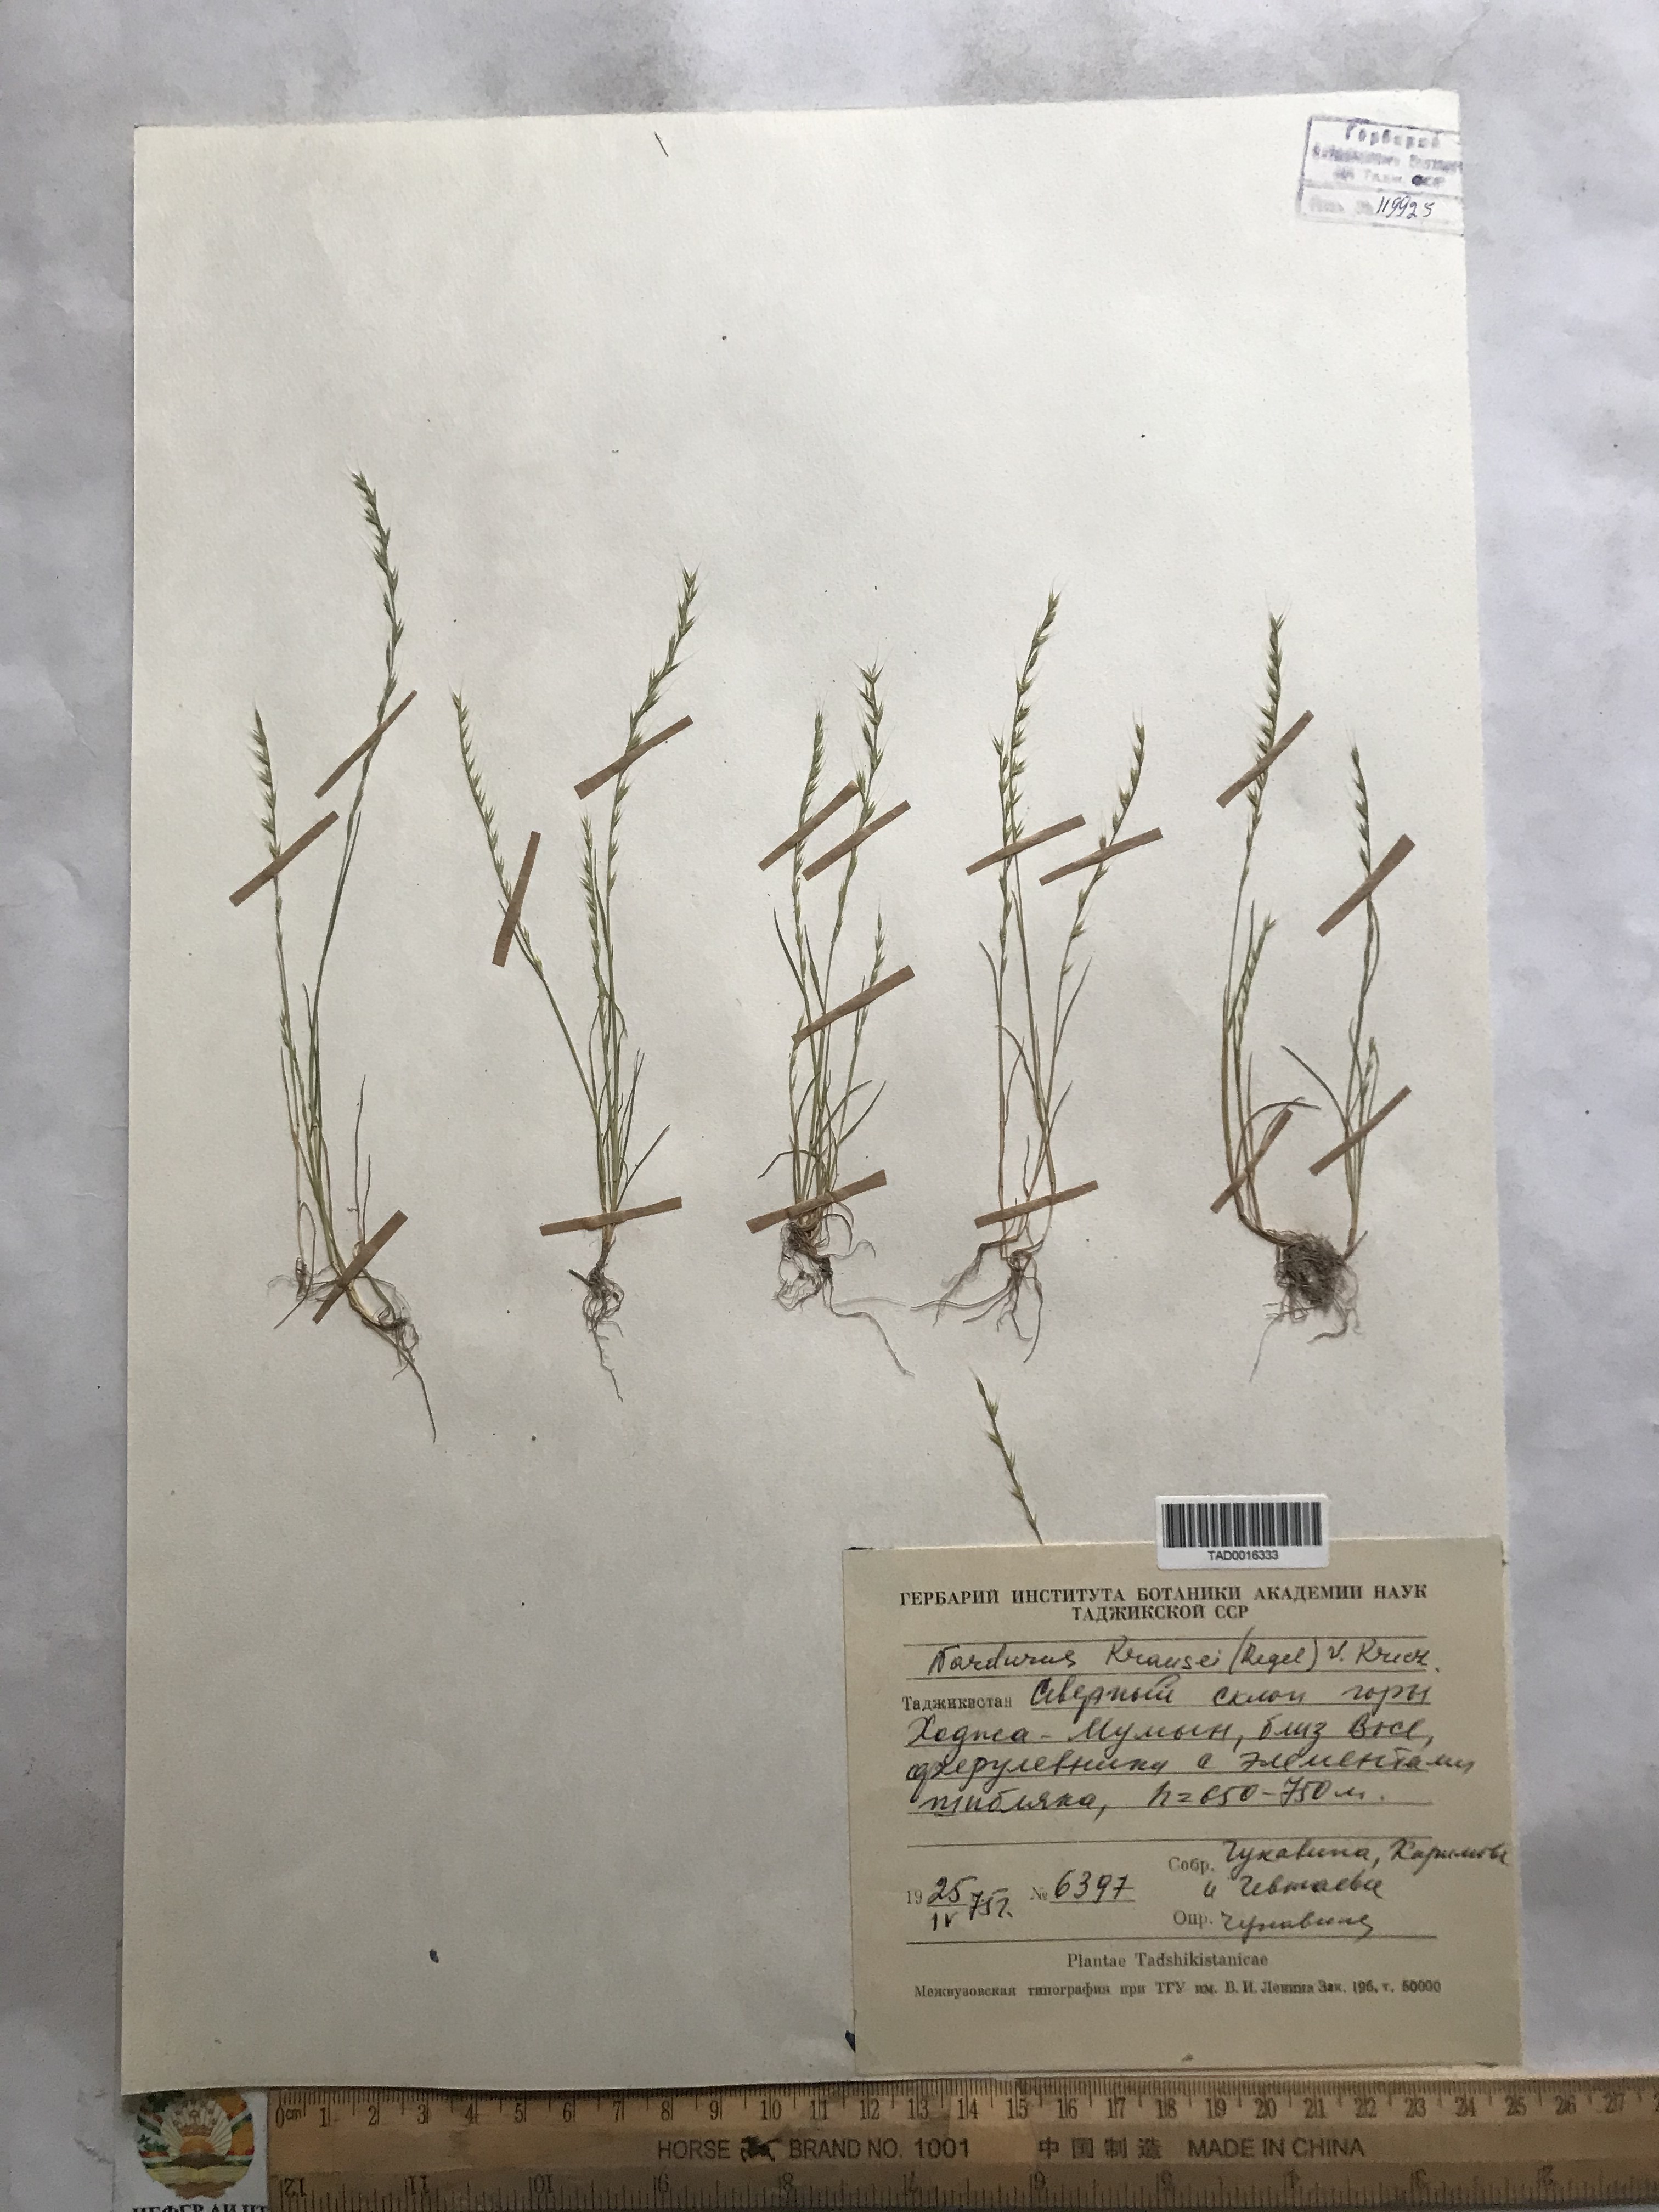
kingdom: Plantae
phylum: Tracheophyta
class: Liliopsida
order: Poales
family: Poaceae
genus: Festuca
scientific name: Festuca maritima
